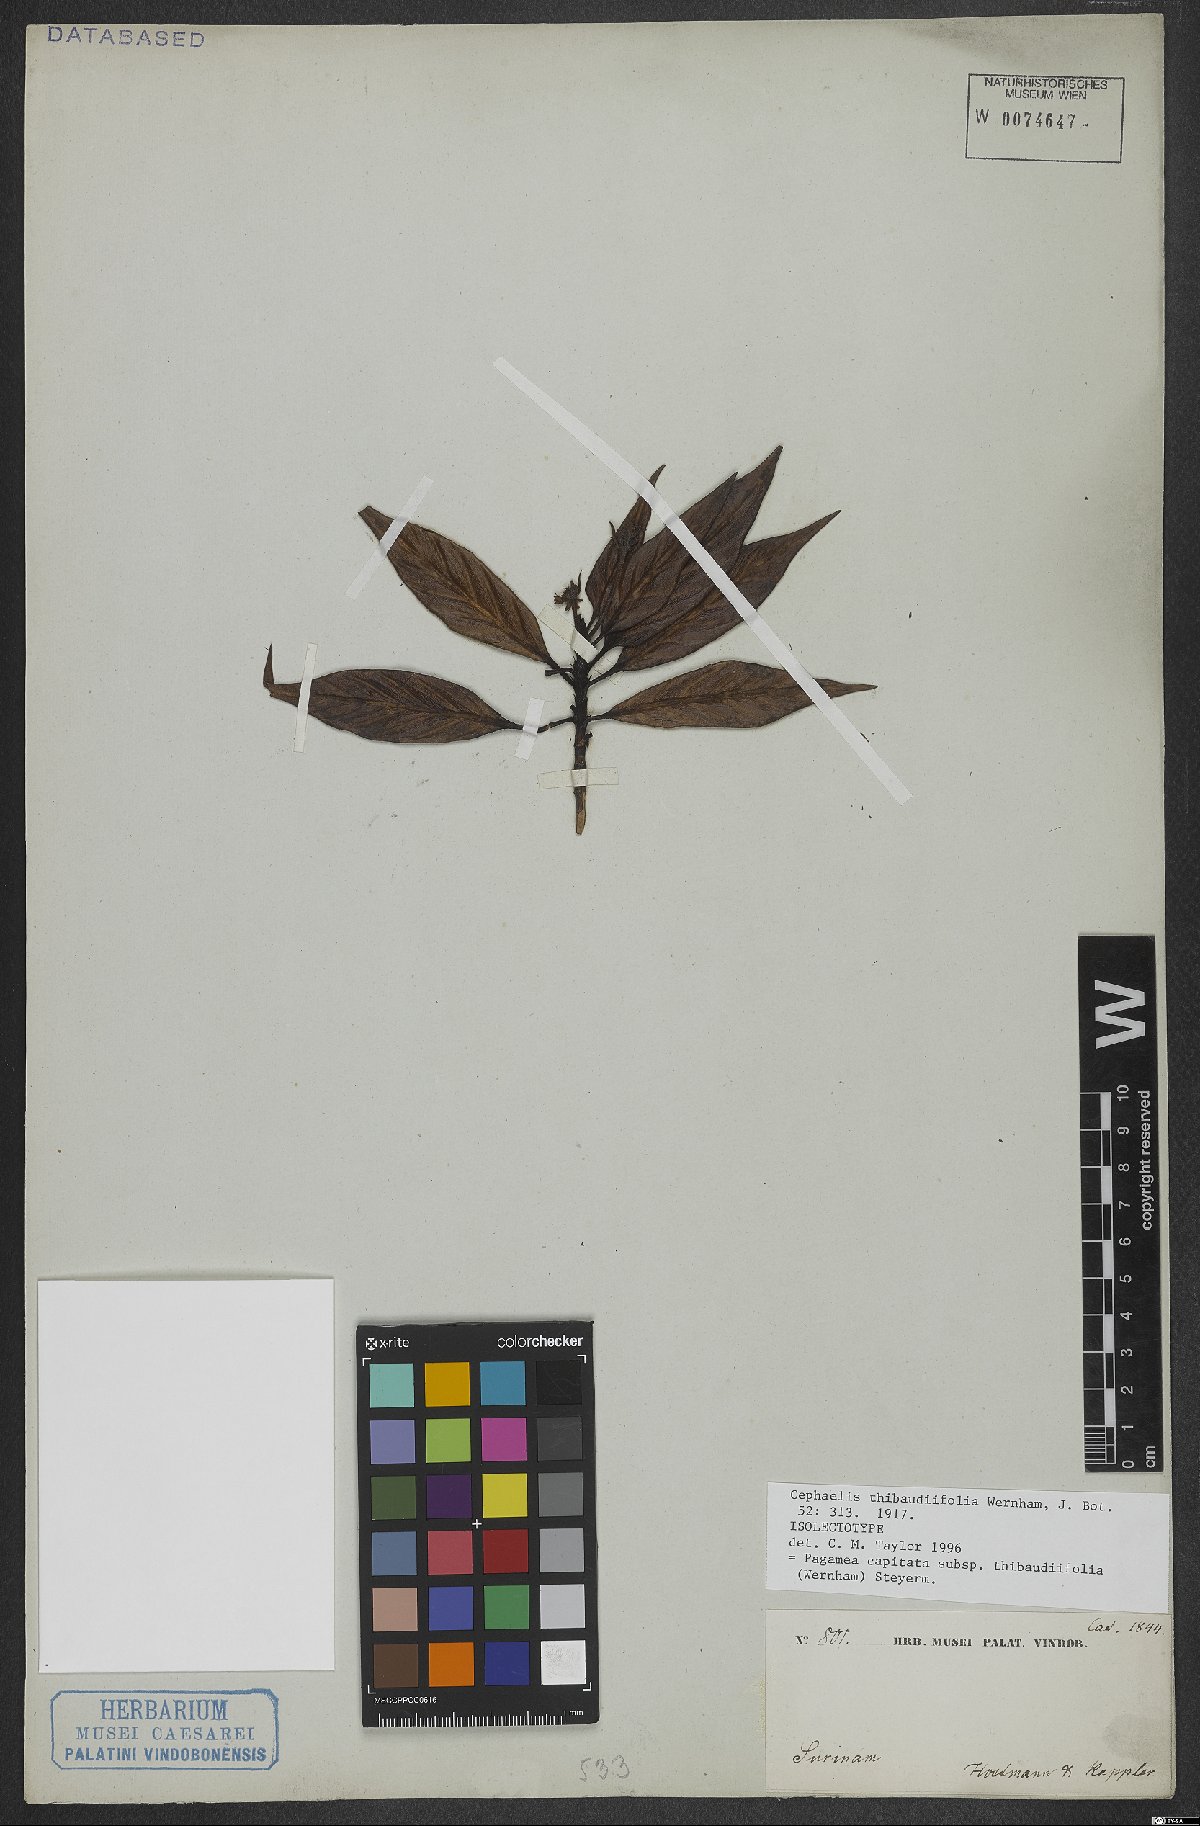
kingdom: Plantae
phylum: Tracheophyta
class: Magnoliopsida
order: Gentianales
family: Rubiaceae
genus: Pagamea
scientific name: Pagamea capitata
